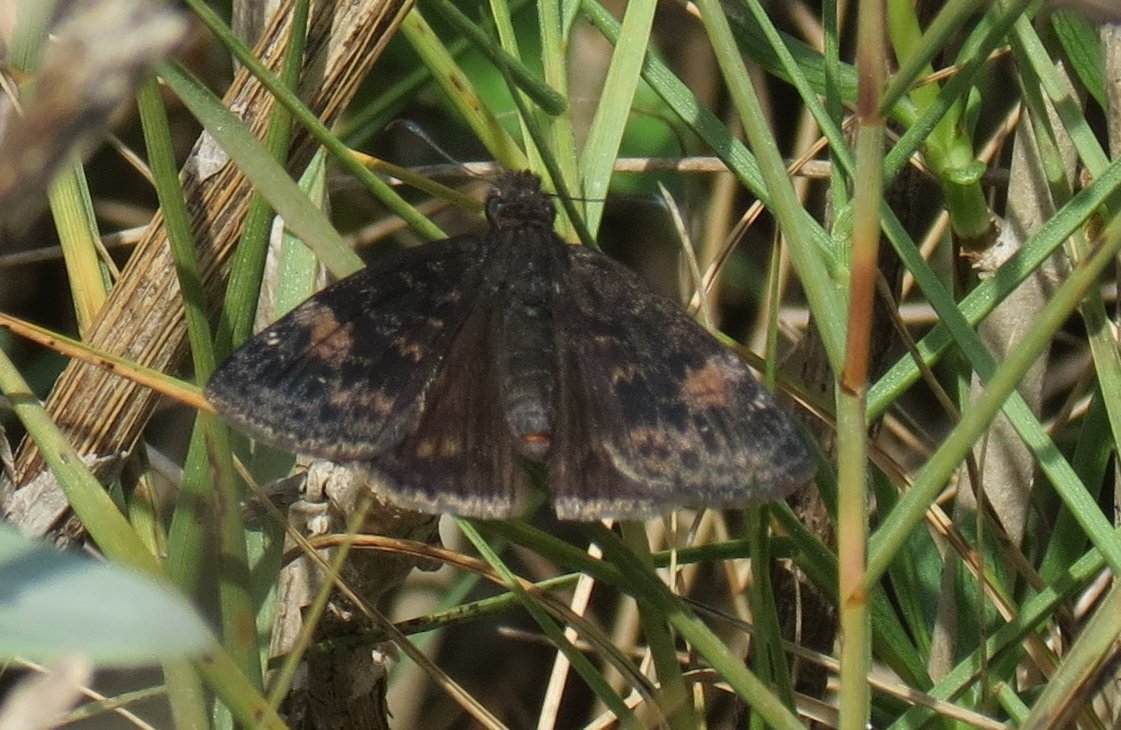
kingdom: Animalia
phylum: Arthropoda
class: Insecta
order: Lepidoptera
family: Hesperiidae
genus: Erynnis
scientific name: Erynnis zarucco
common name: Zarucco Duskywing
